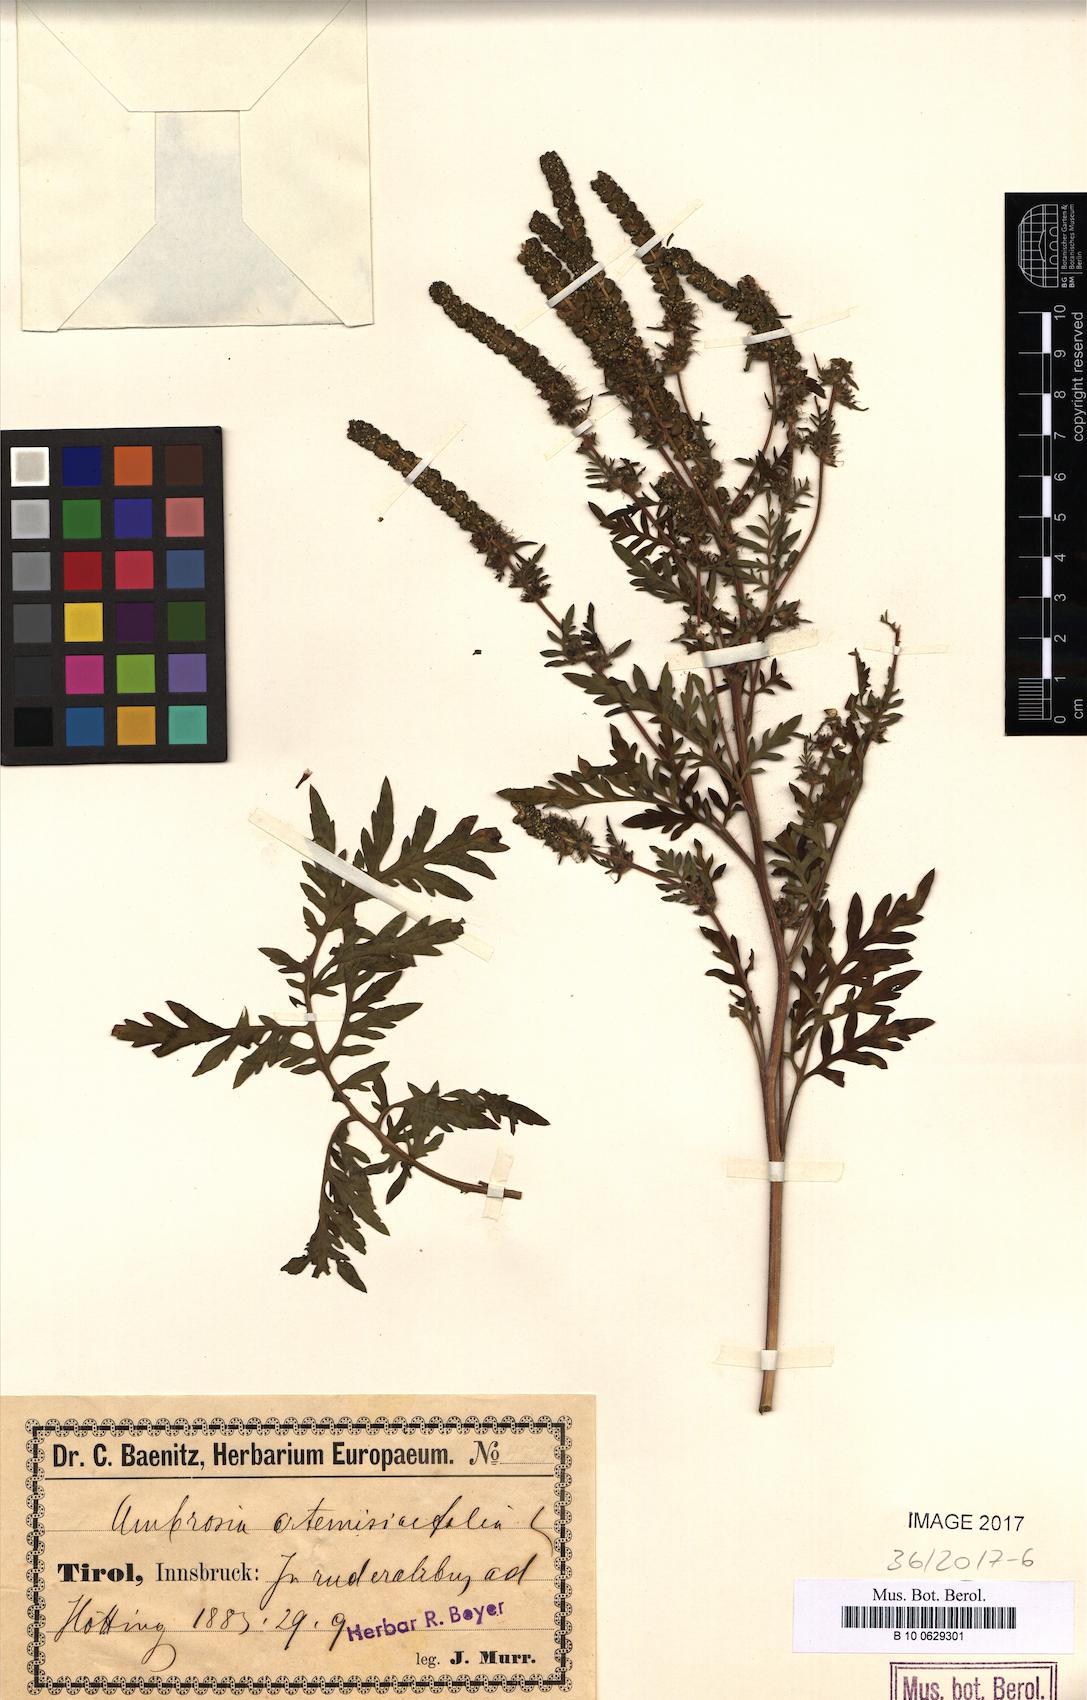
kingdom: Plantae
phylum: Tracheophyta
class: Magnoliopsida
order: Asterales
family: Asteraceae
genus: Ambrosia
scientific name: Ambrosia artemisiifolia
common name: Annual ragweed
